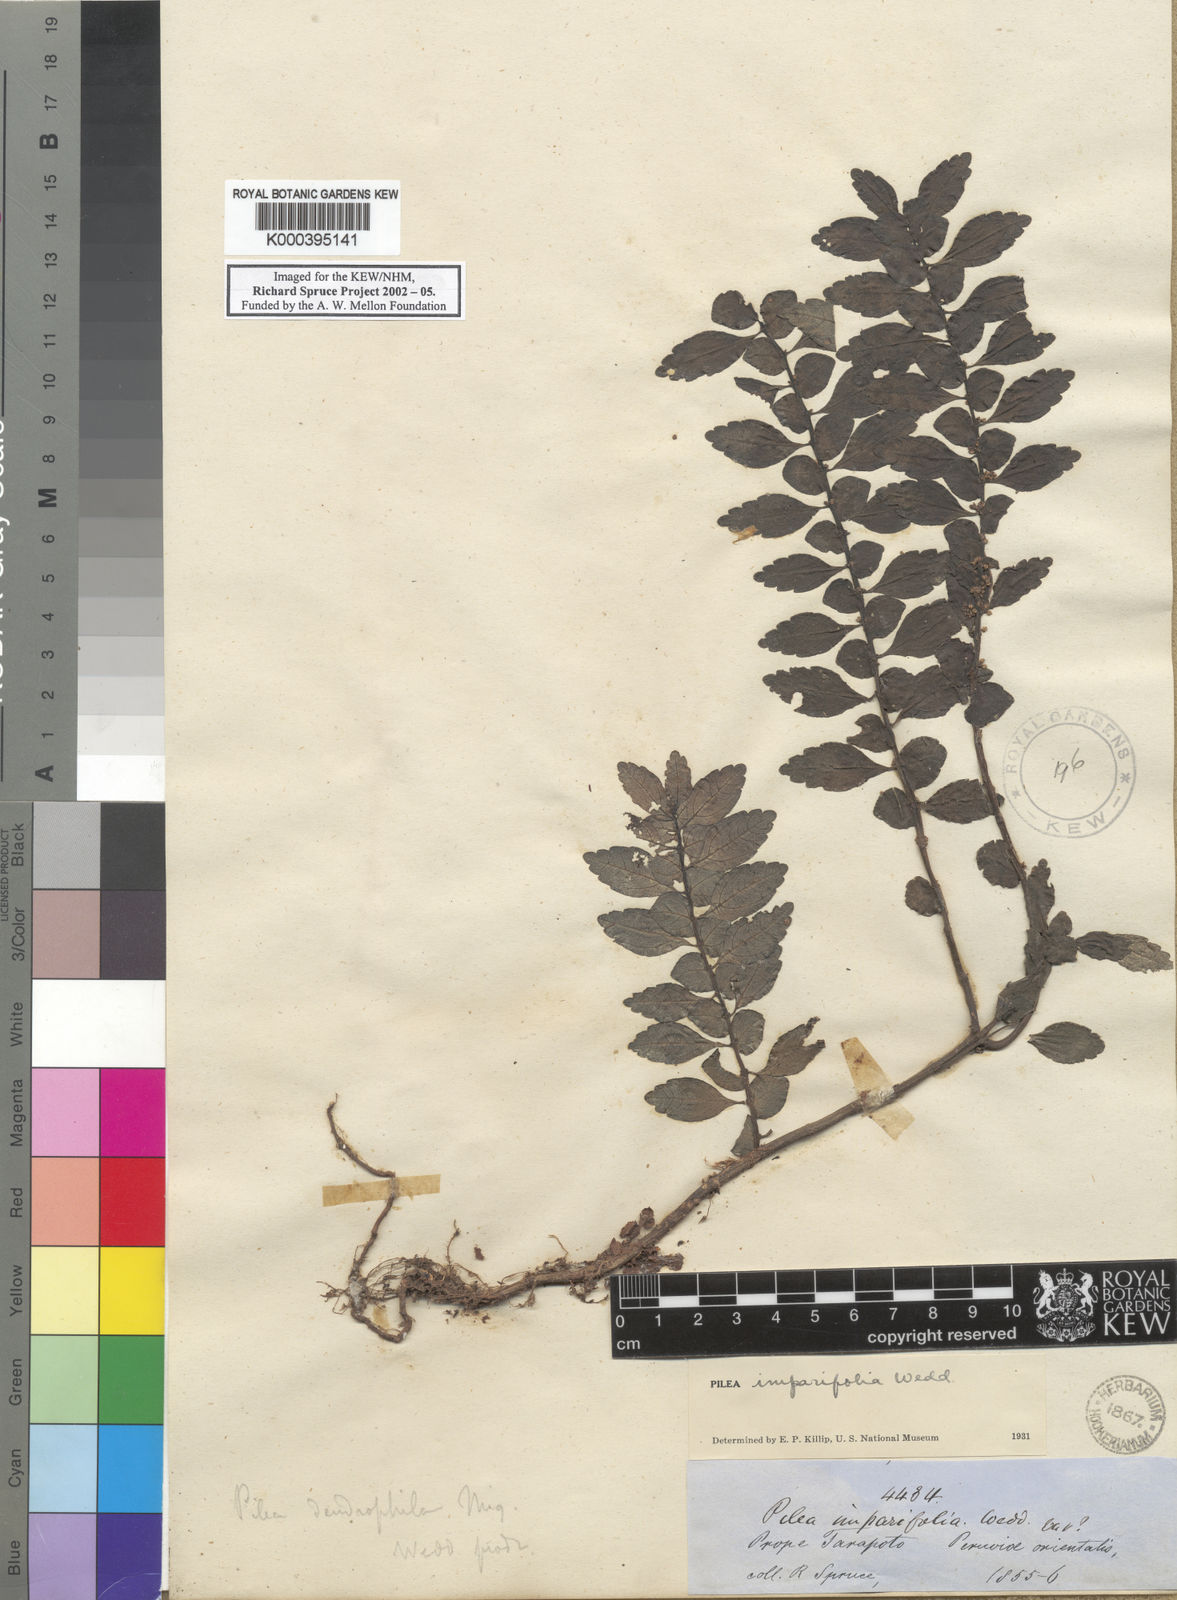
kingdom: Plantae
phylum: Tracheophyta
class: Magnoliopsida
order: Rosales
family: Urticaceae
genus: Pilea
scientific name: Pilea imparifolia
